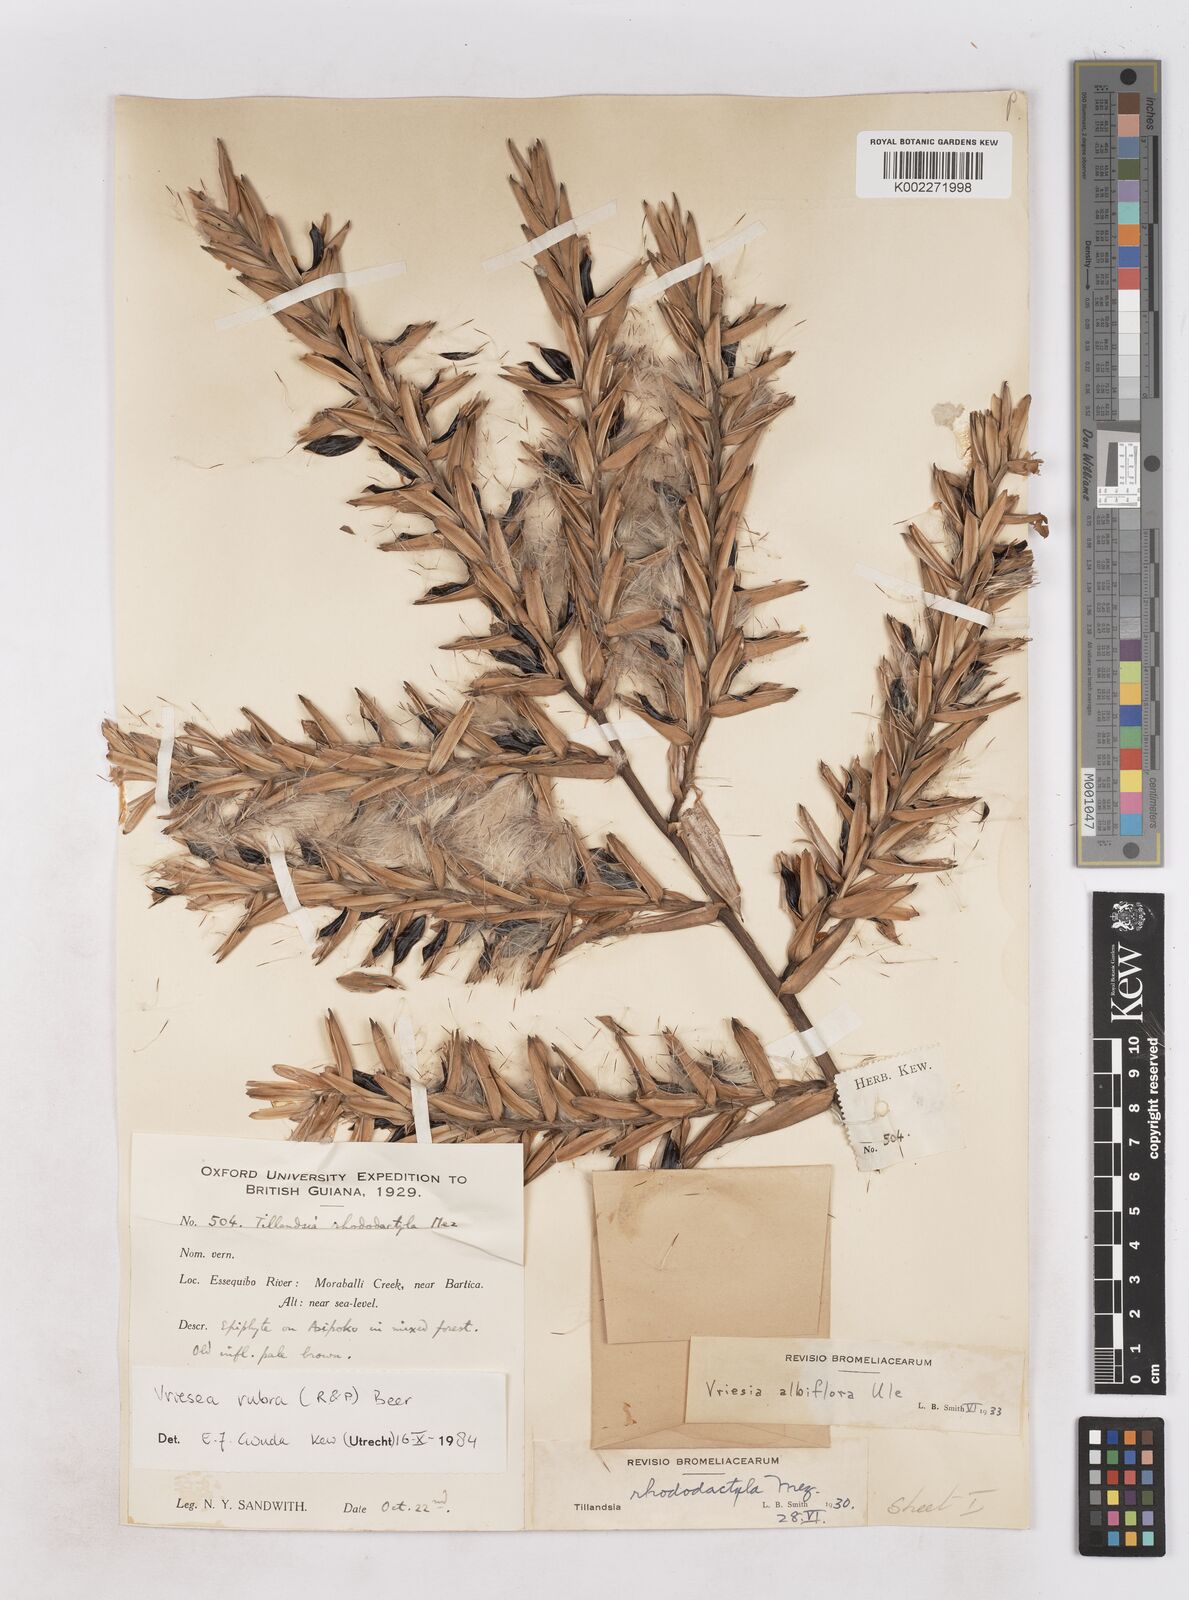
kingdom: Plantae
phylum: Tracheophyta
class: Liliopsida
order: Poales
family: Bromeliaceae
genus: Vriesea
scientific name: Vriesea rubra
